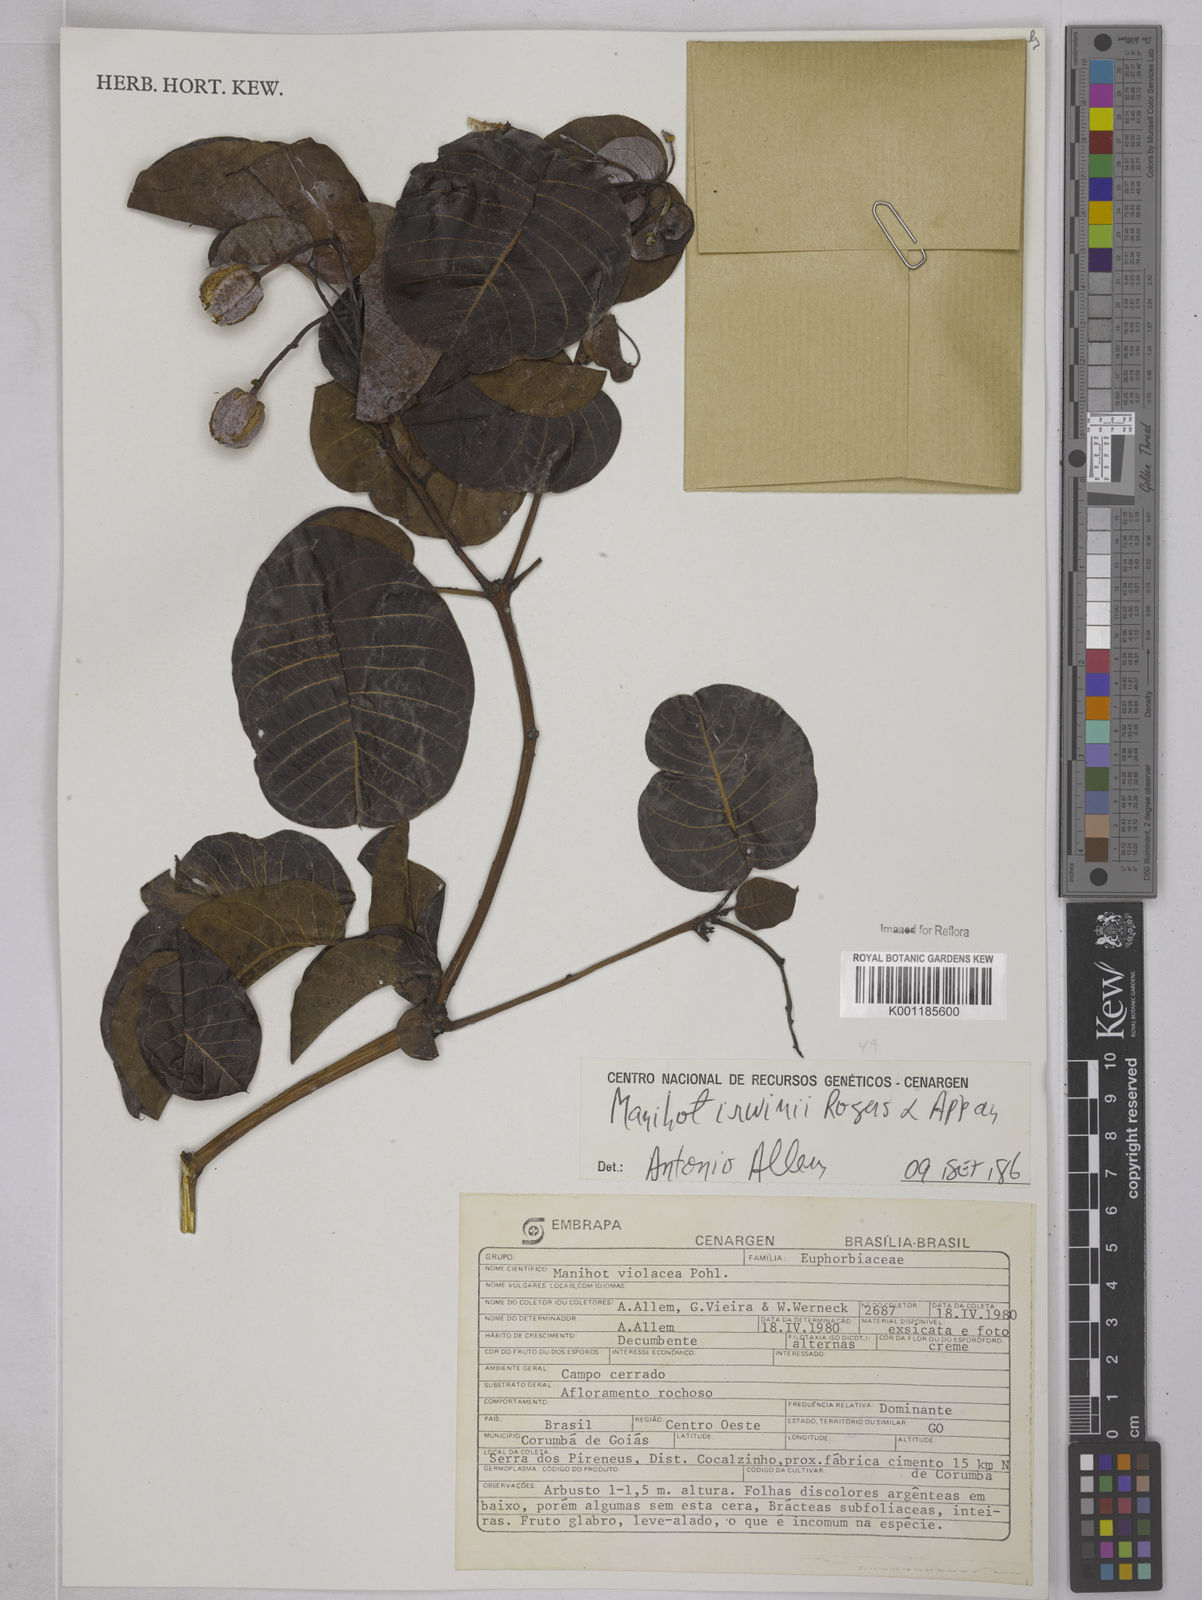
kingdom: Plantae
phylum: Tracheophyta
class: Magnoliopsida
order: Malpighiales
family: Euphorbiaceae
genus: Manihot
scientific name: Manihot irwinii
